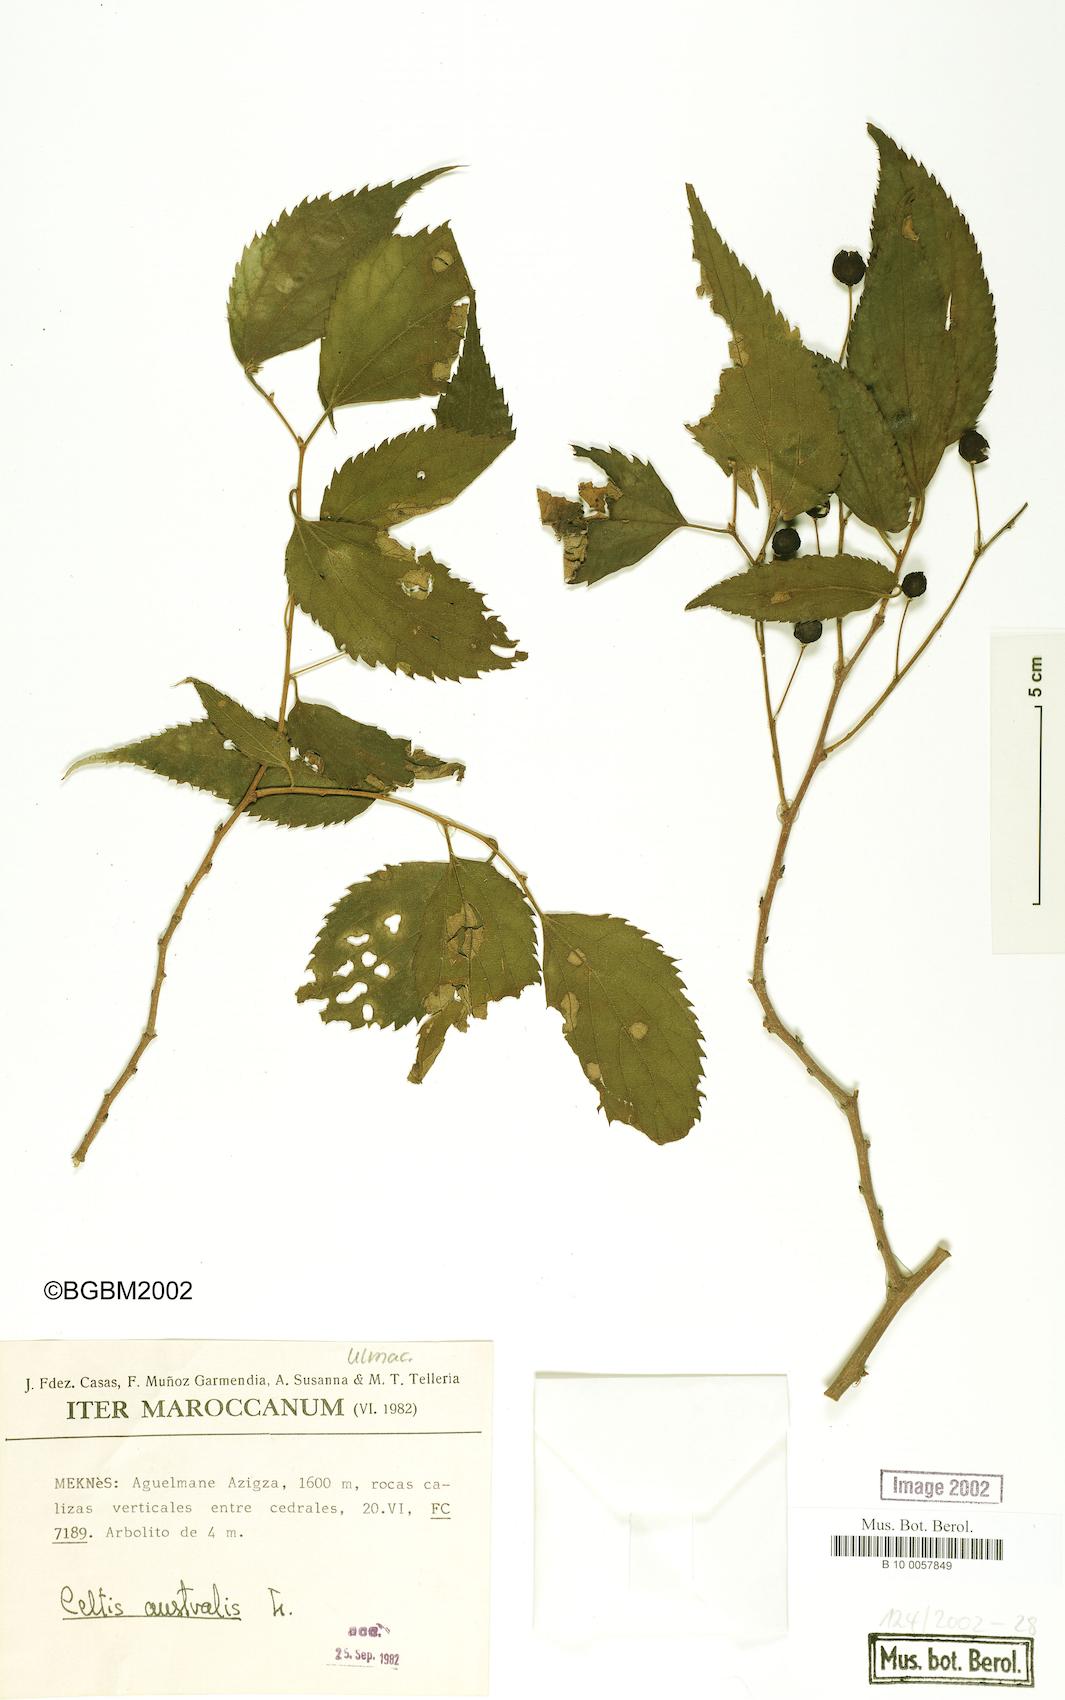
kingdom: Plantae
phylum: Tracheophyta
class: Magnoliopsida
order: Rosales
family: Cannabaceae
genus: Celtis
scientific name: Celtis australis
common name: European hackberry
